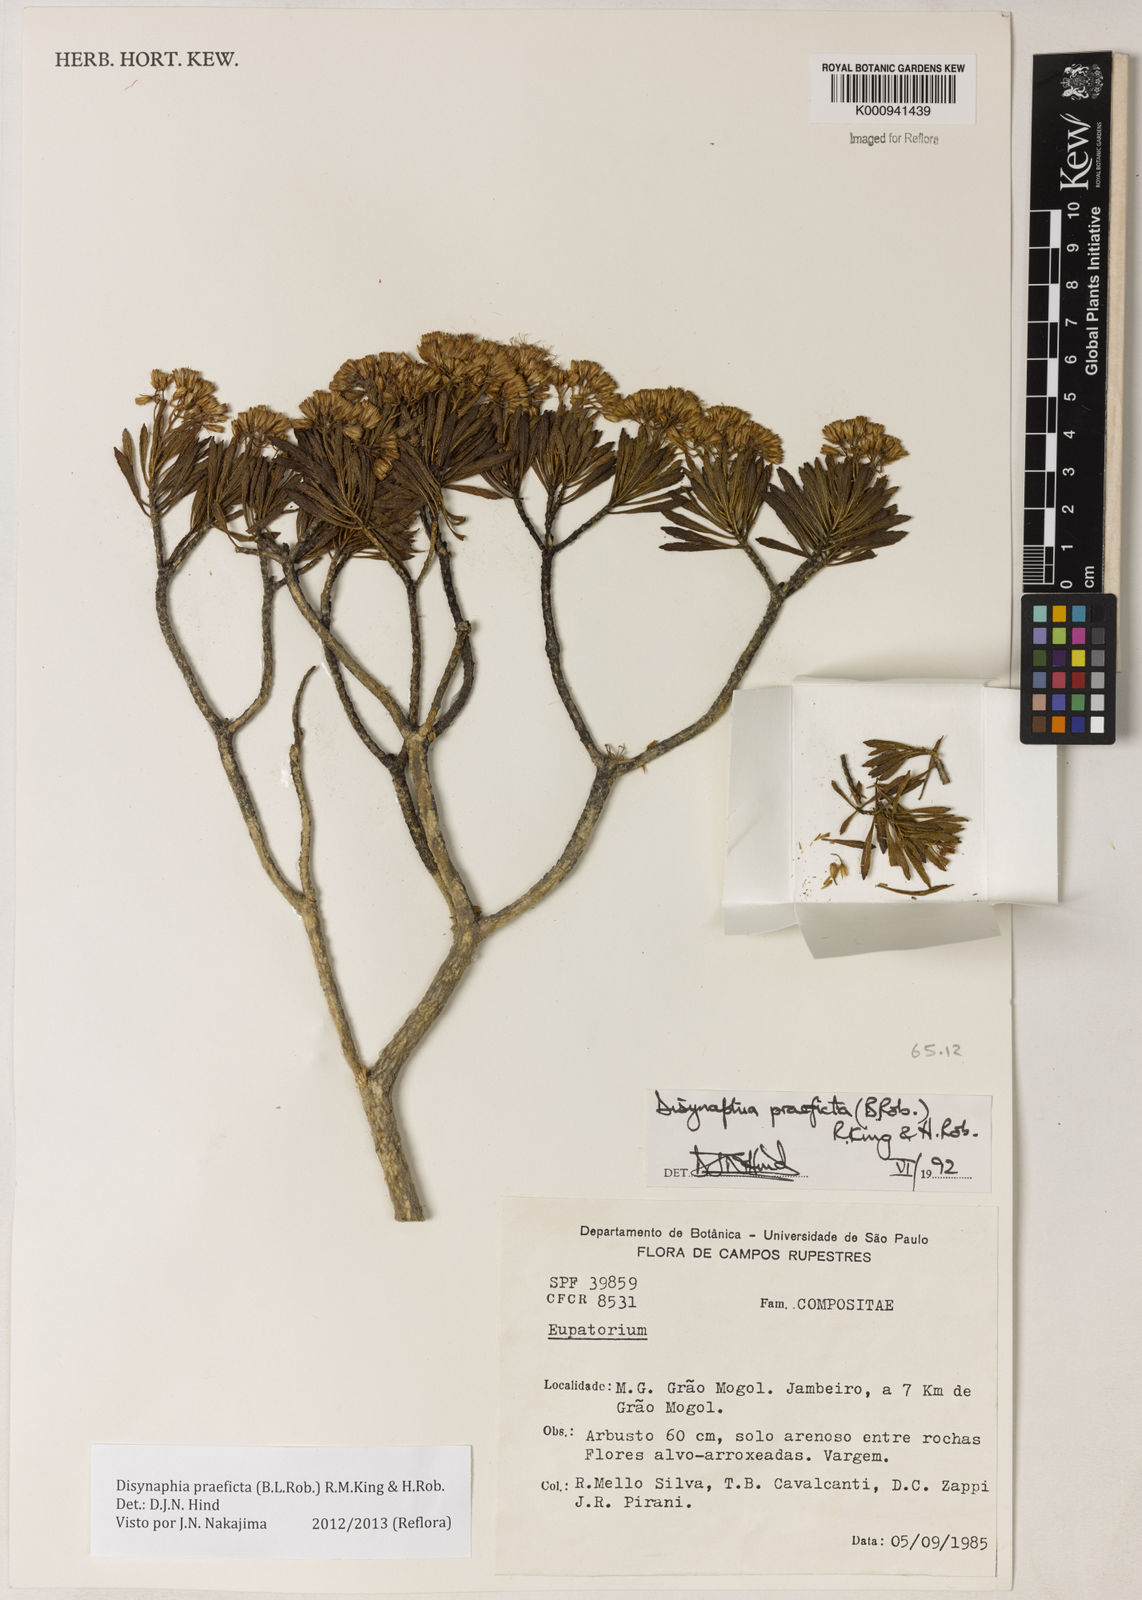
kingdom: Plantae
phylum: Tracheophyta
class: Magnoliopsida
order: Asterales
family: Asteraceae
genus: Disynaphia
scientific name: Disynaphia praeficta
